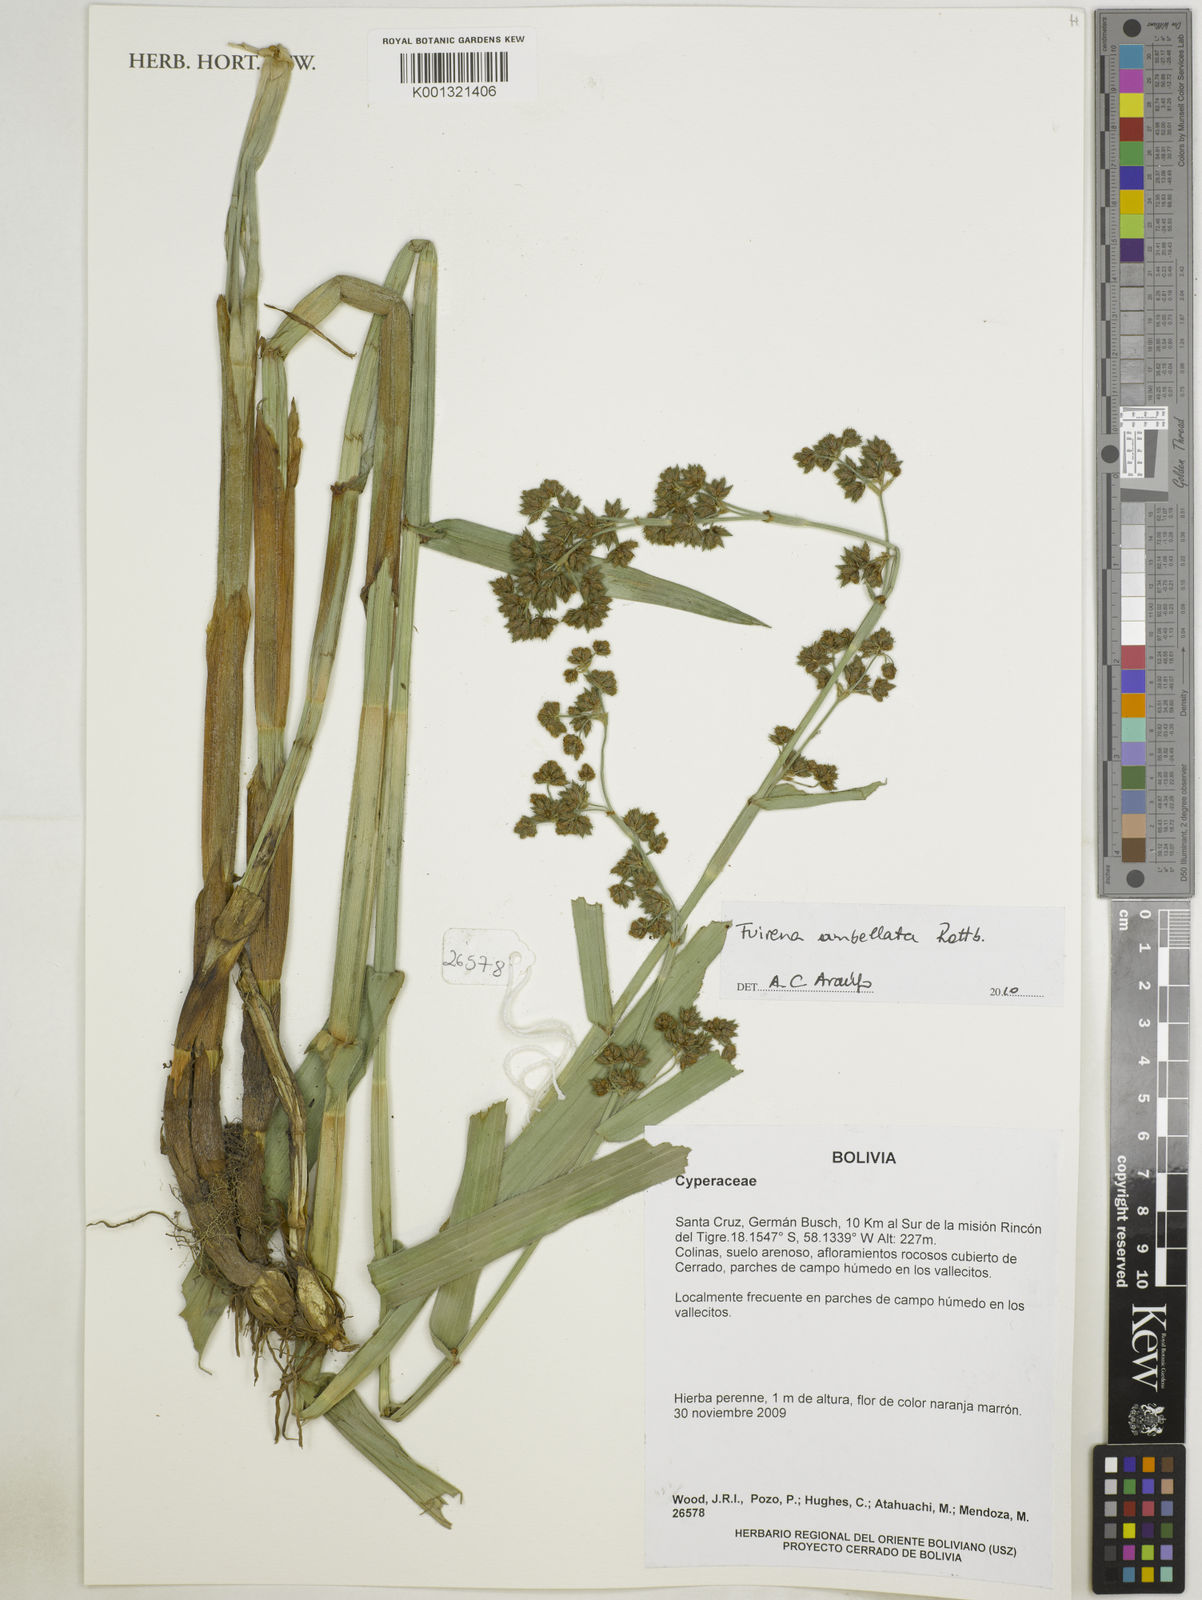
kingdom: Plantae
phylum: Tracheophyta
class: Liliopsida
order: Poales
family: Cyperaceae
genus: Fuirena
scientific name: Fuirena umbellata
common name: Yefen
